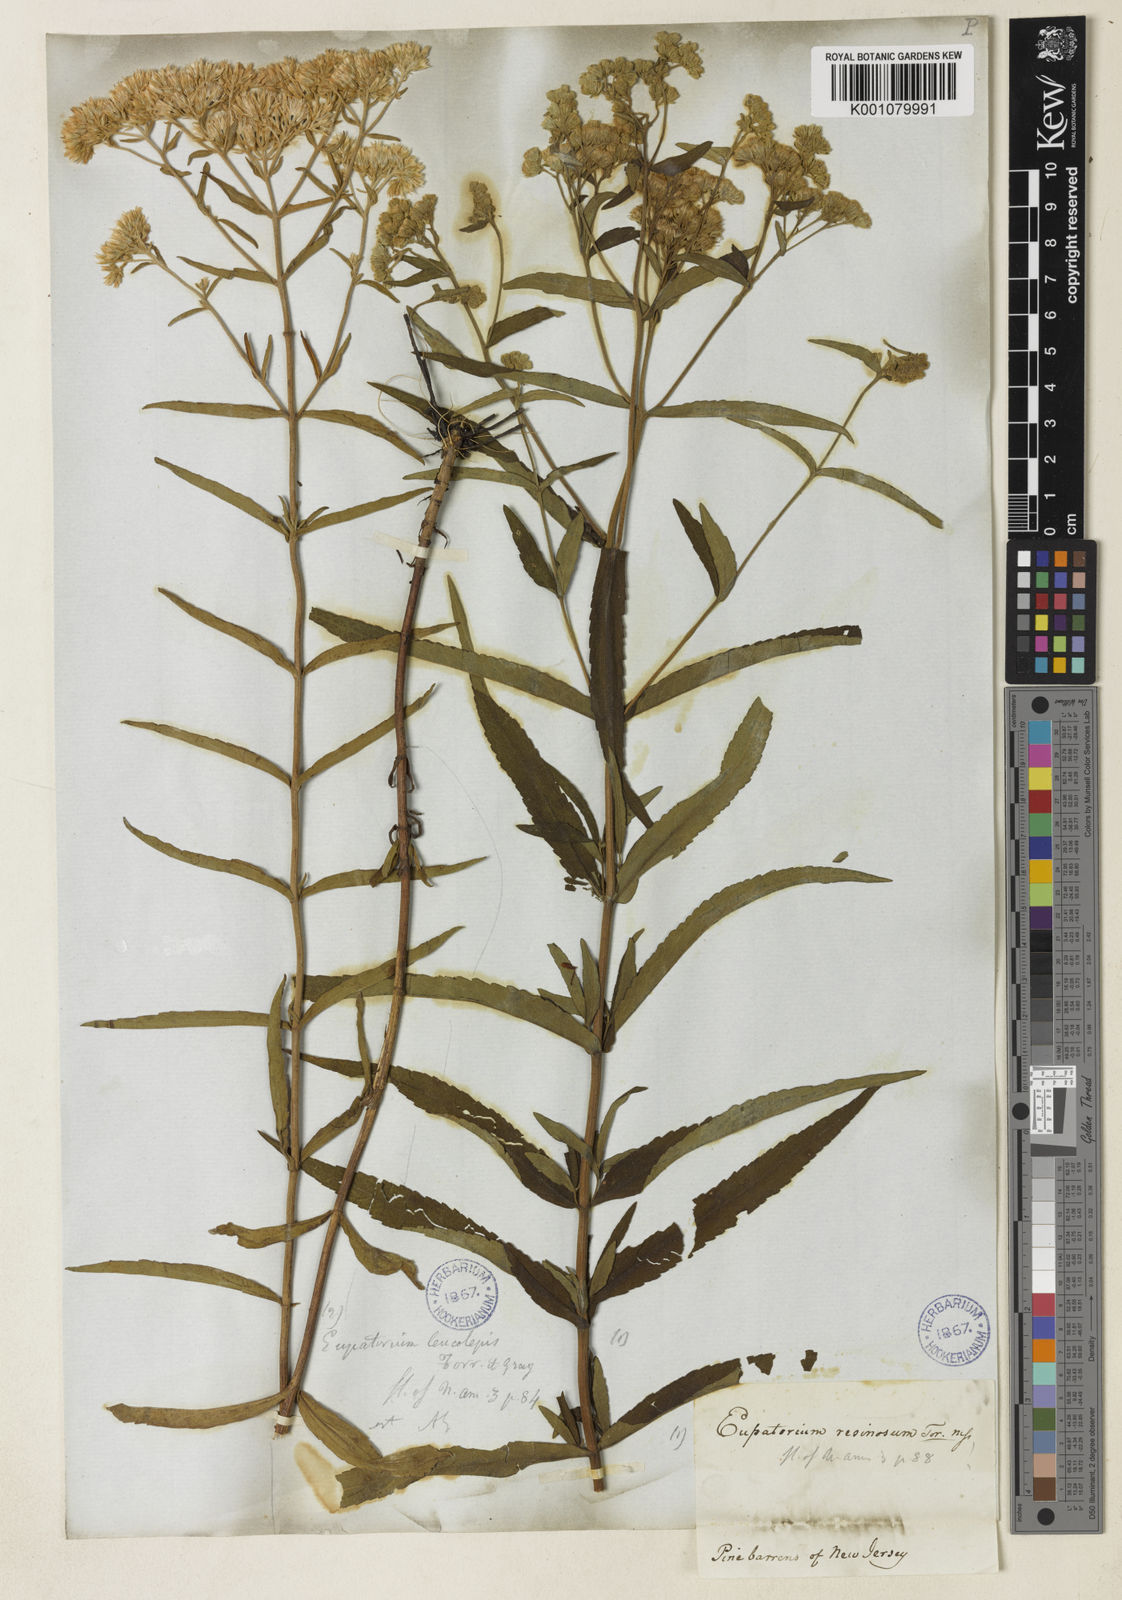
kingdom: Plantae
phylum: Tracheophyta
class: Magnoliopsida
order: Asterales
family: Asteraceae
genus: Eupatorium
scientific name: Eupatorium leucolepis
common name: Justiceweed
